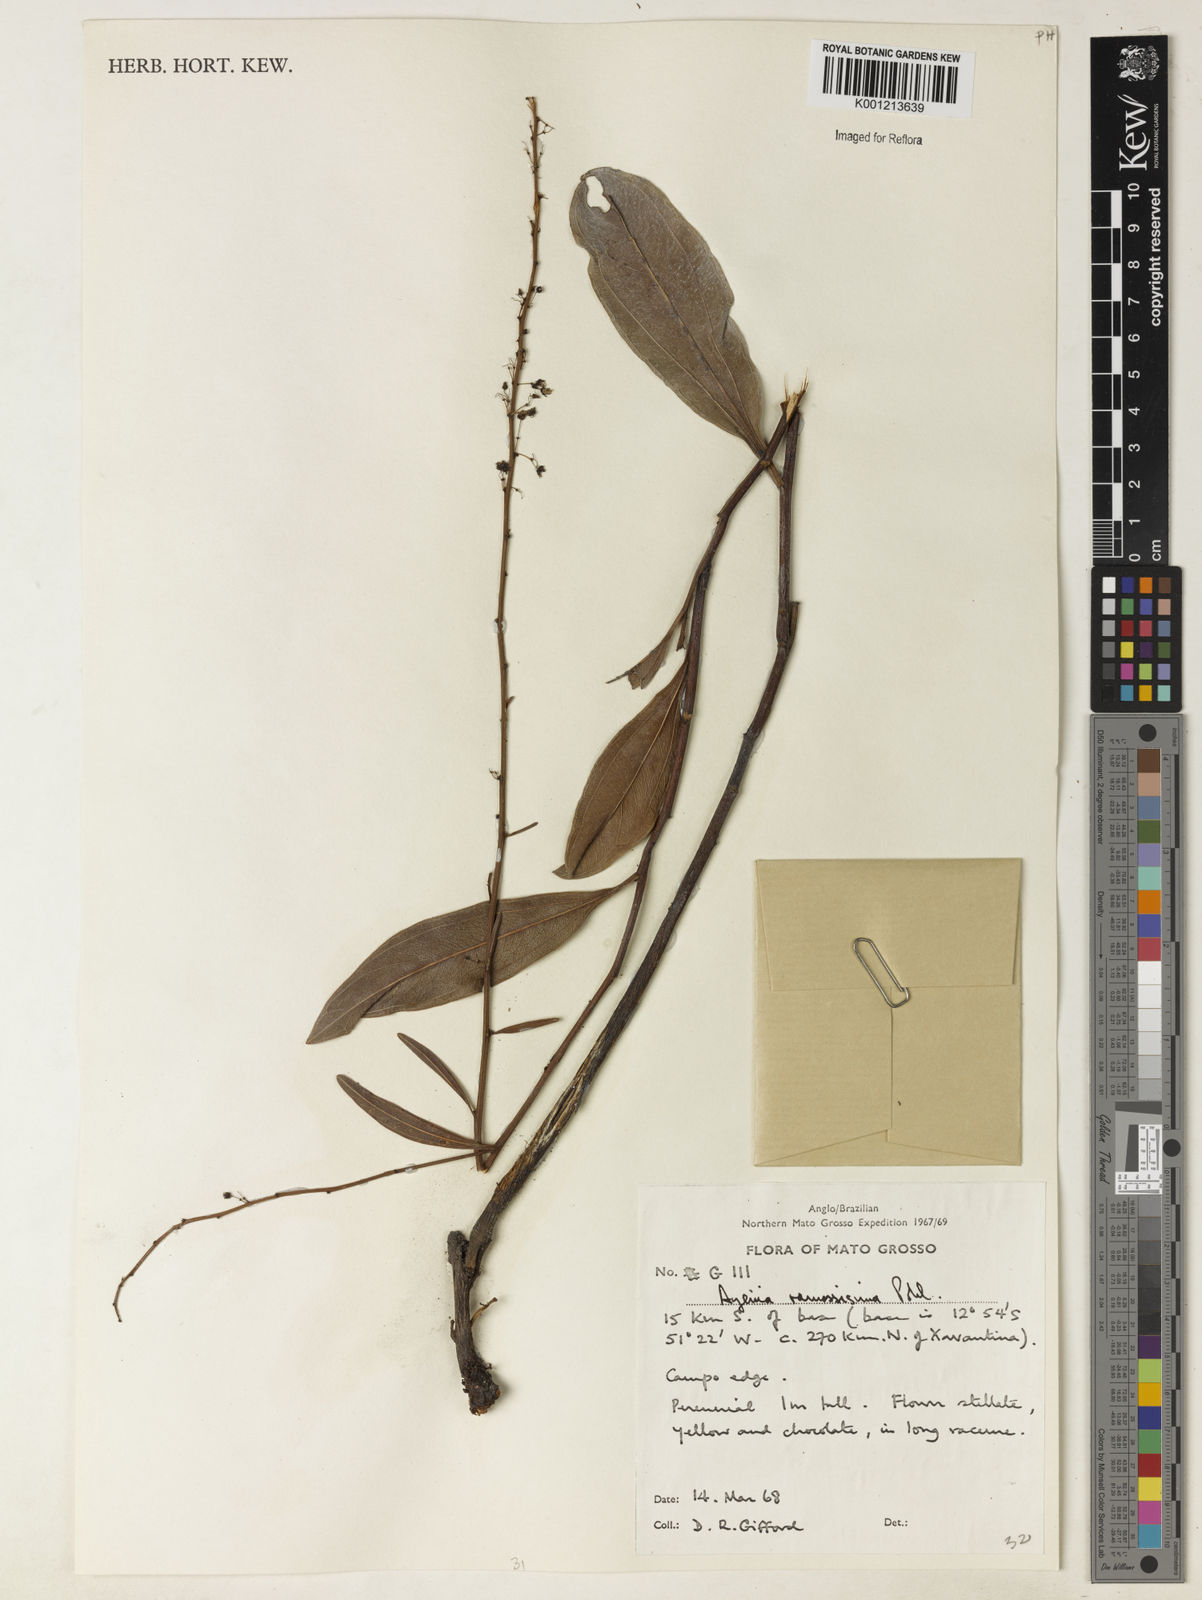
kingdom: Plantae
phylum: Tracheophyta
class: Magnoliopsida
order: Malvales
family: Malvaceae
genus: Byttneria
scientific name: Byttneria ramosissima
